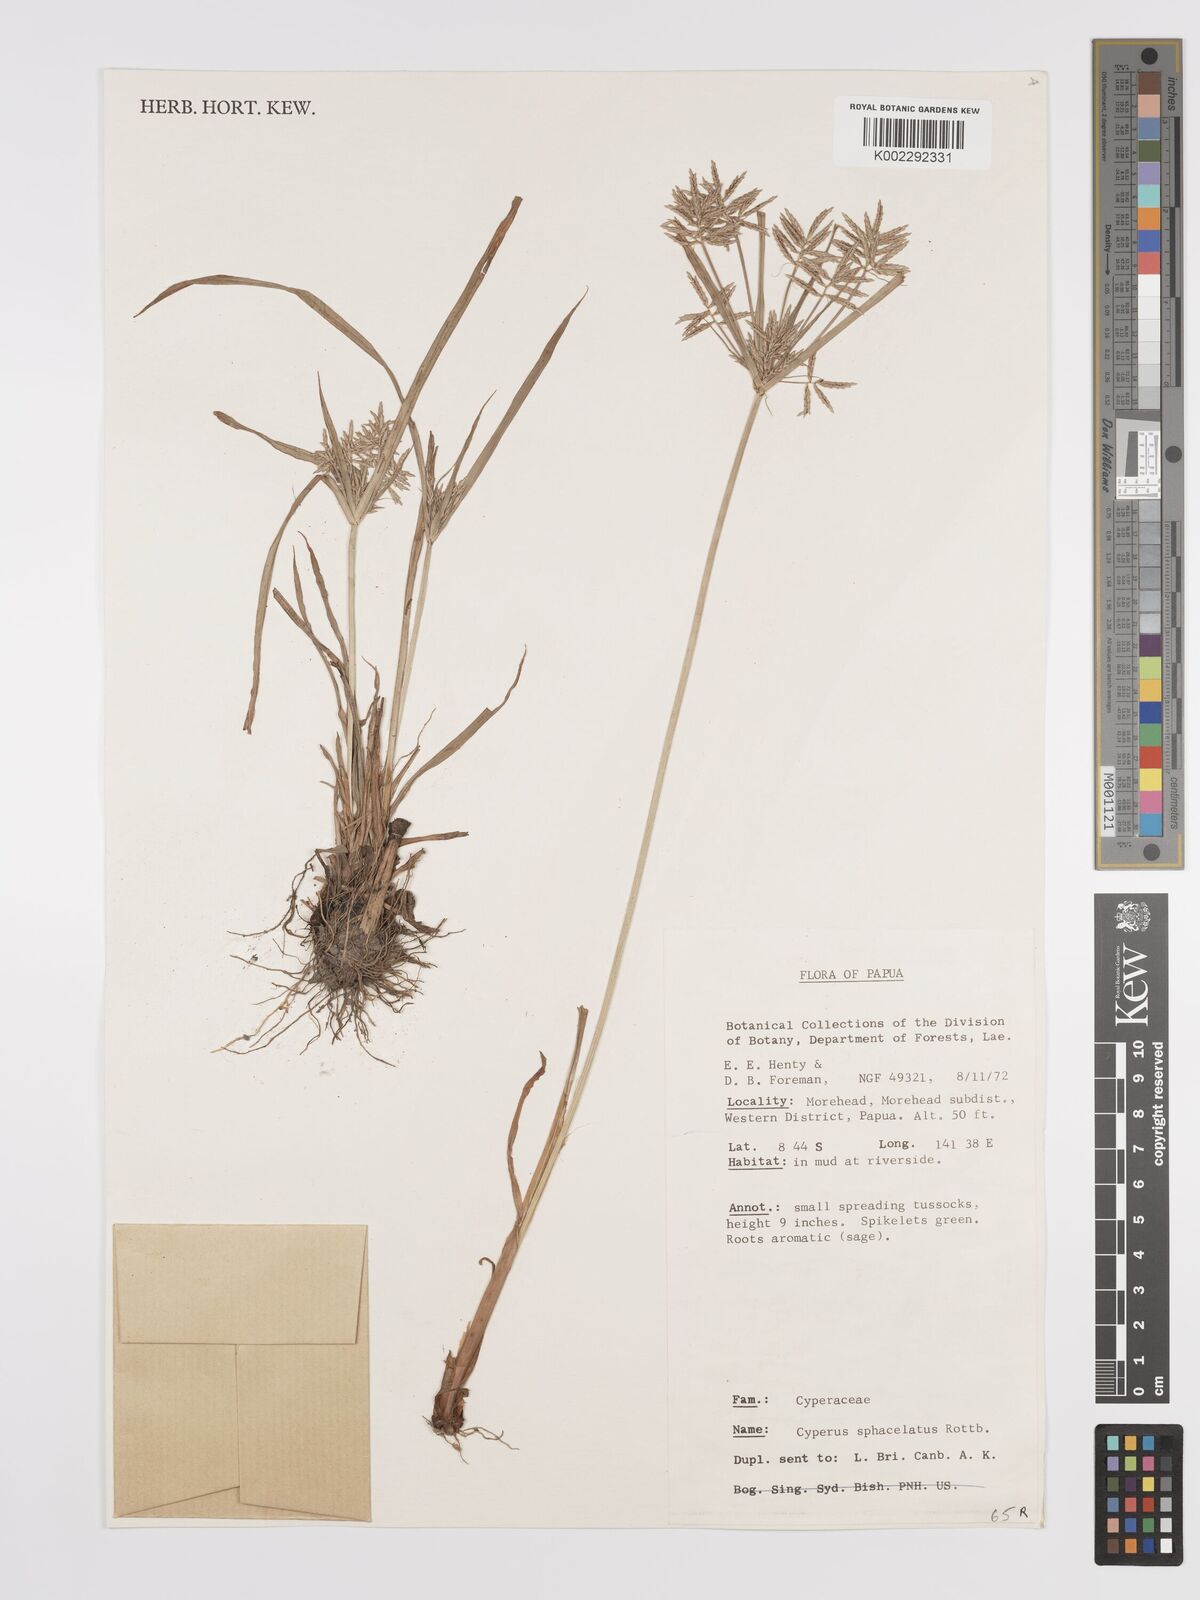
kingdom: Plantae
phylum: Tracheophyta
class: Liliopsida
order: Poales
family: Cyperaceae
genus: Cyperus
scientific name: Cyperus sphacelatus
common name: Roadside flatsedge
